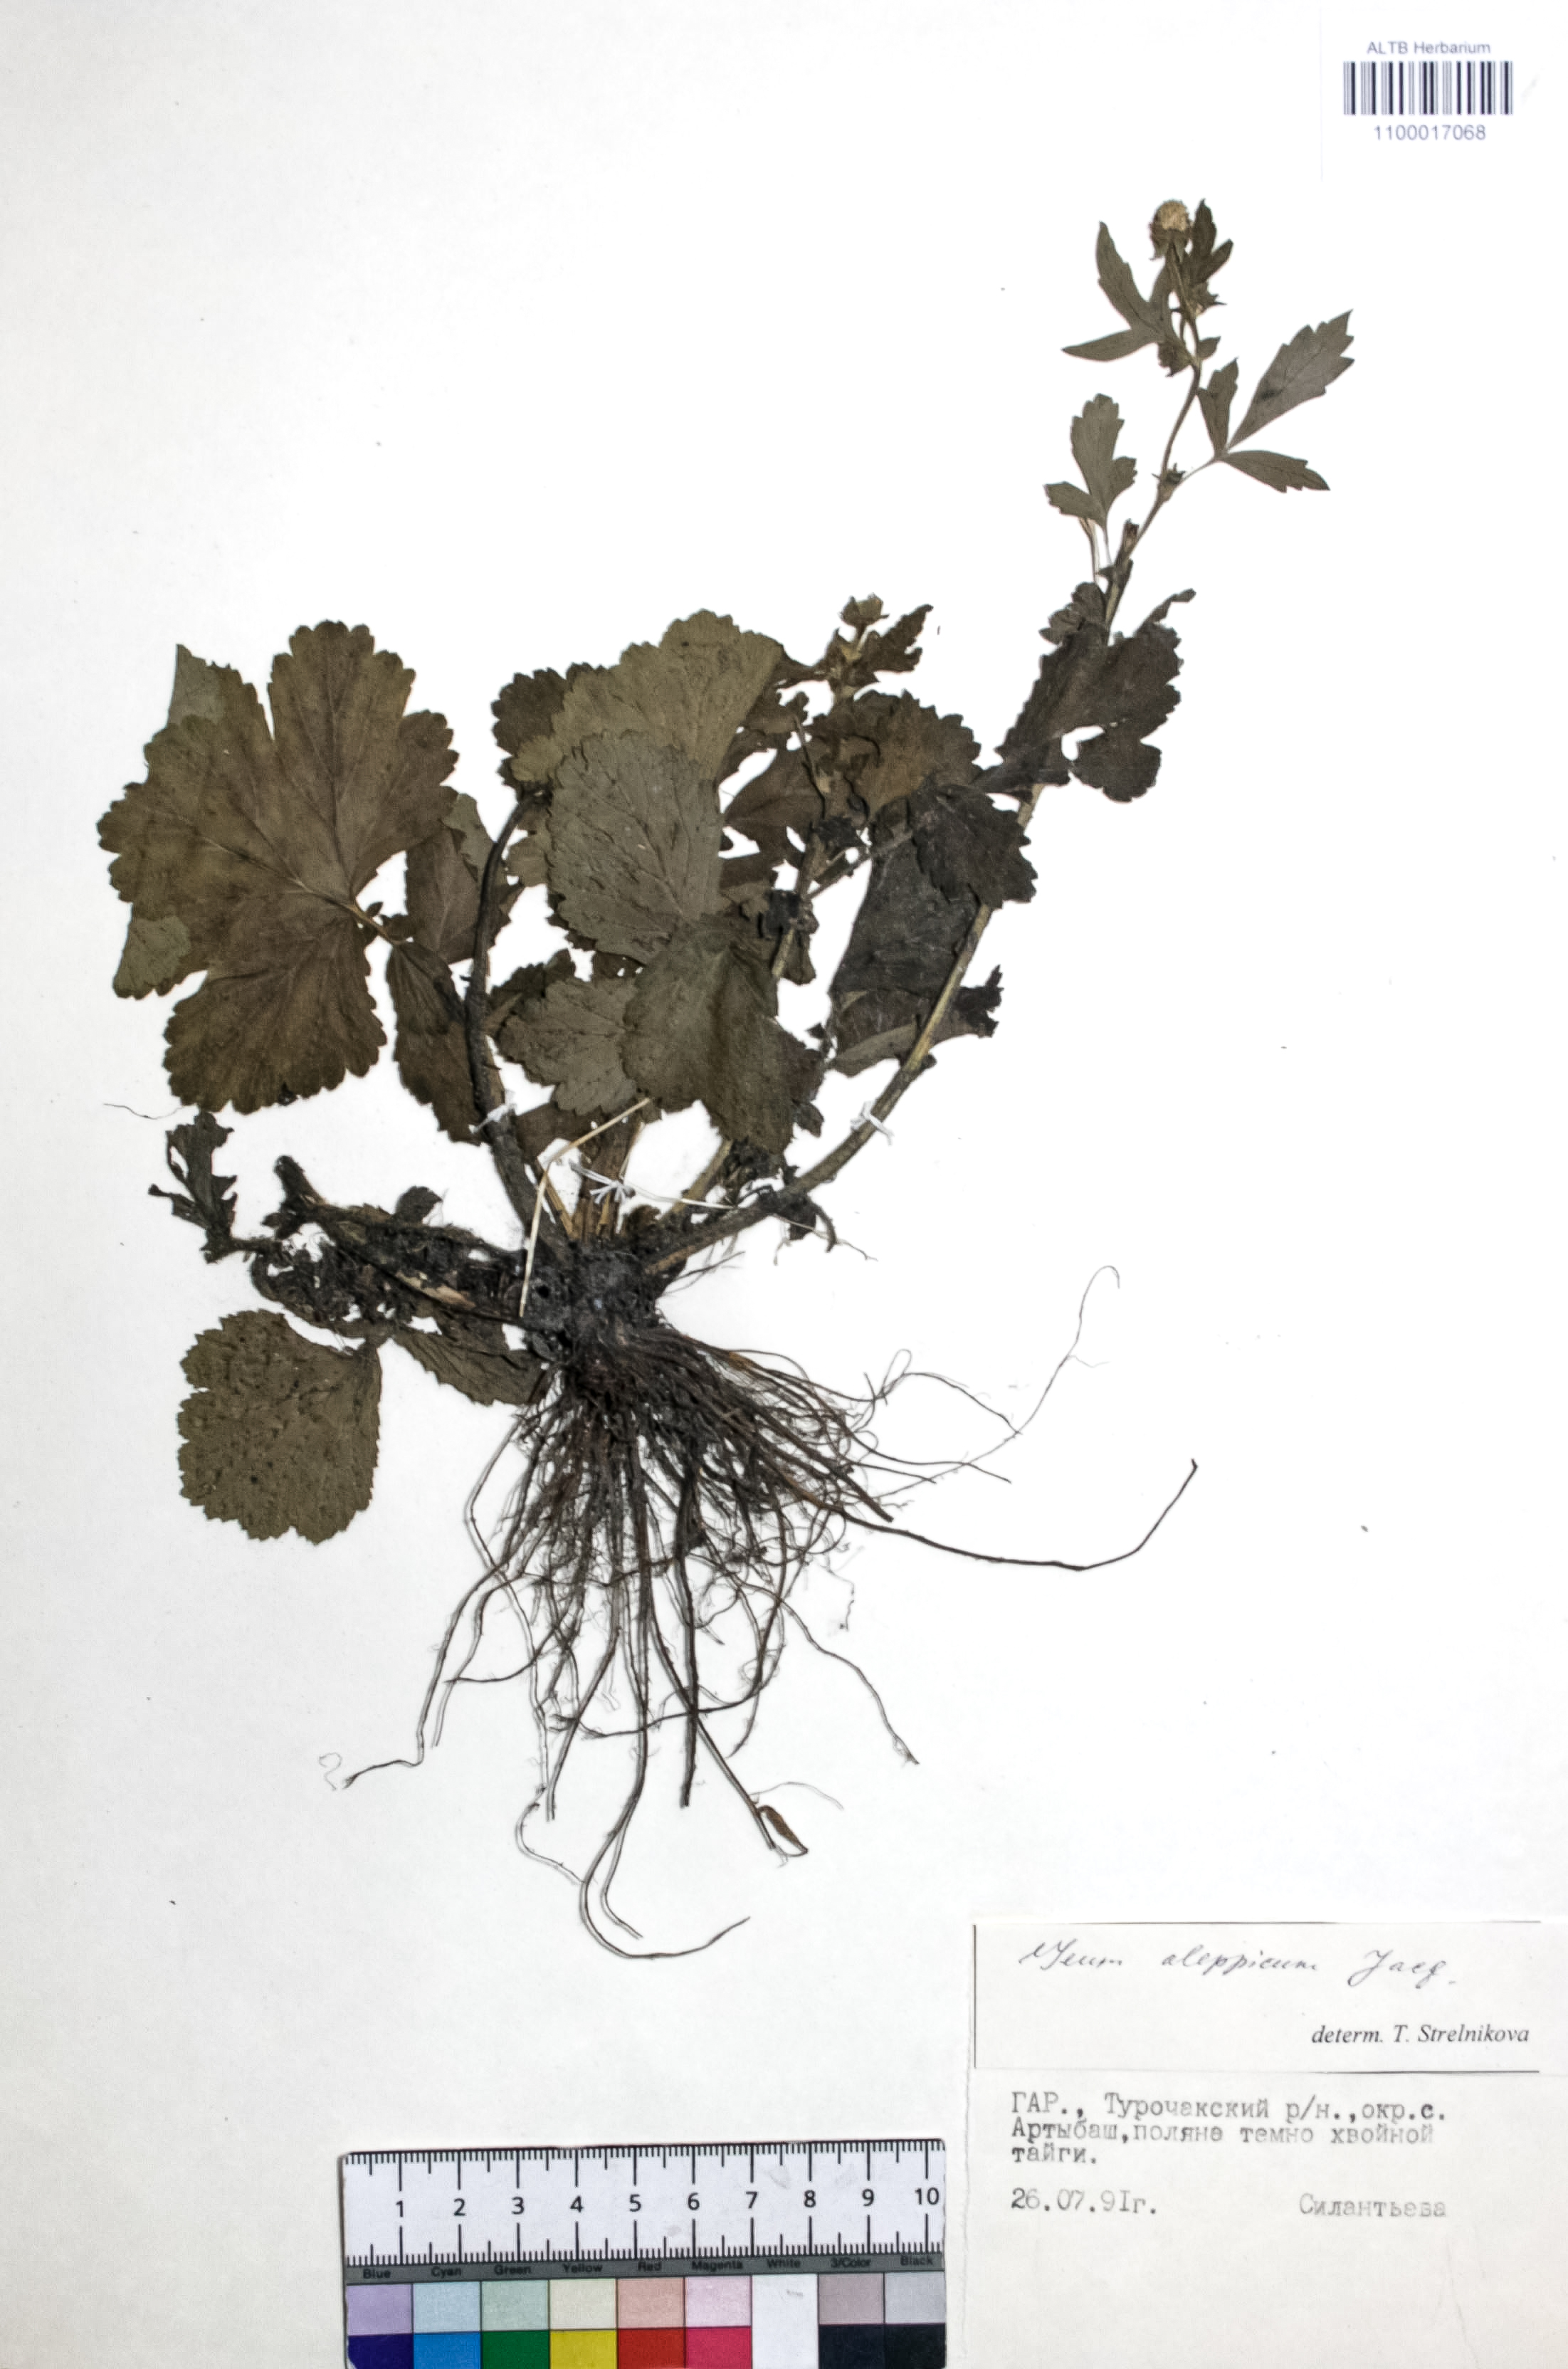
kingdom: Plantae
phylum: Tracheophyta
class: Magnoliopsida
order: Rosales
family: Rosaceae
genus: Geum
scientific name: Geum aleppicum
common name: Yellow avens
